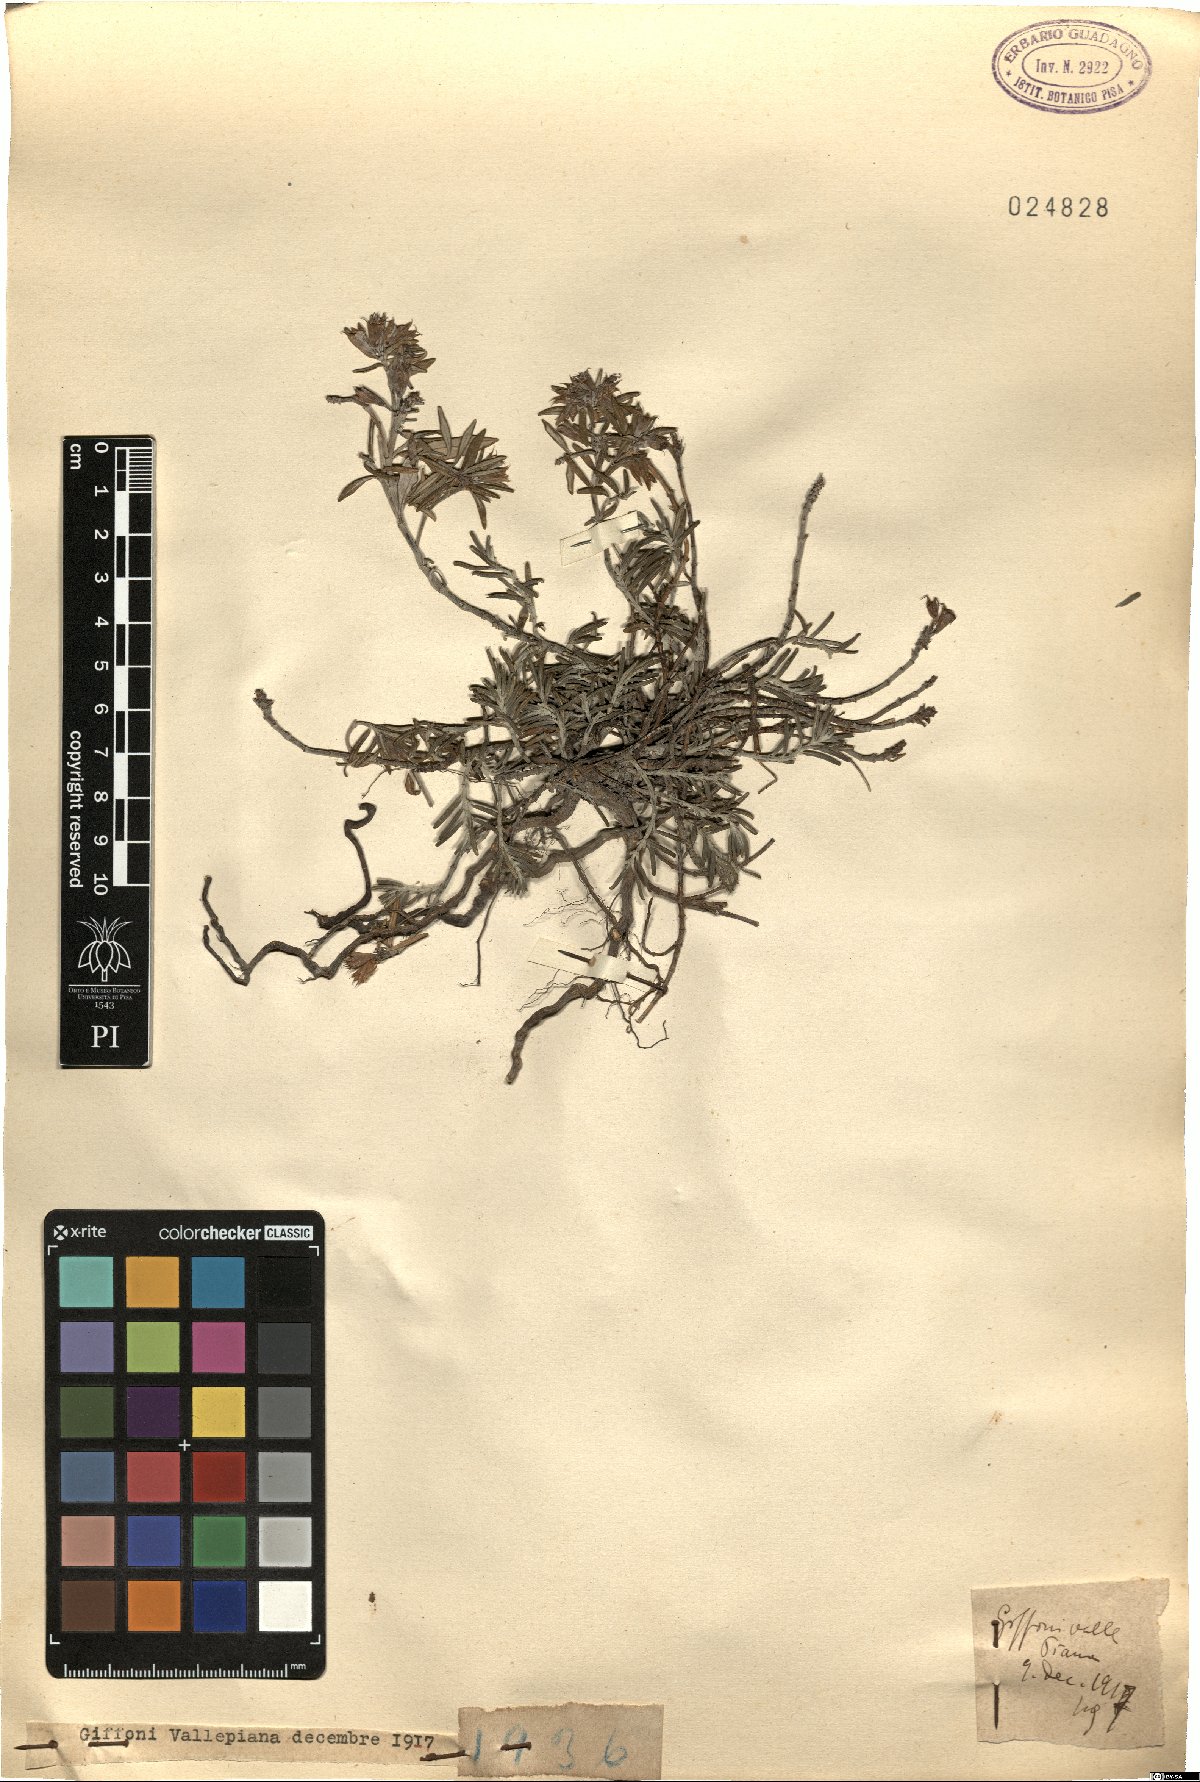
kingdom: Plantae
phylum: Tracheophyta
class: Magnoliopsida
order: Lamiales
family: Lamiaceae
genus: Teucrium
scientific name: Teucrium
